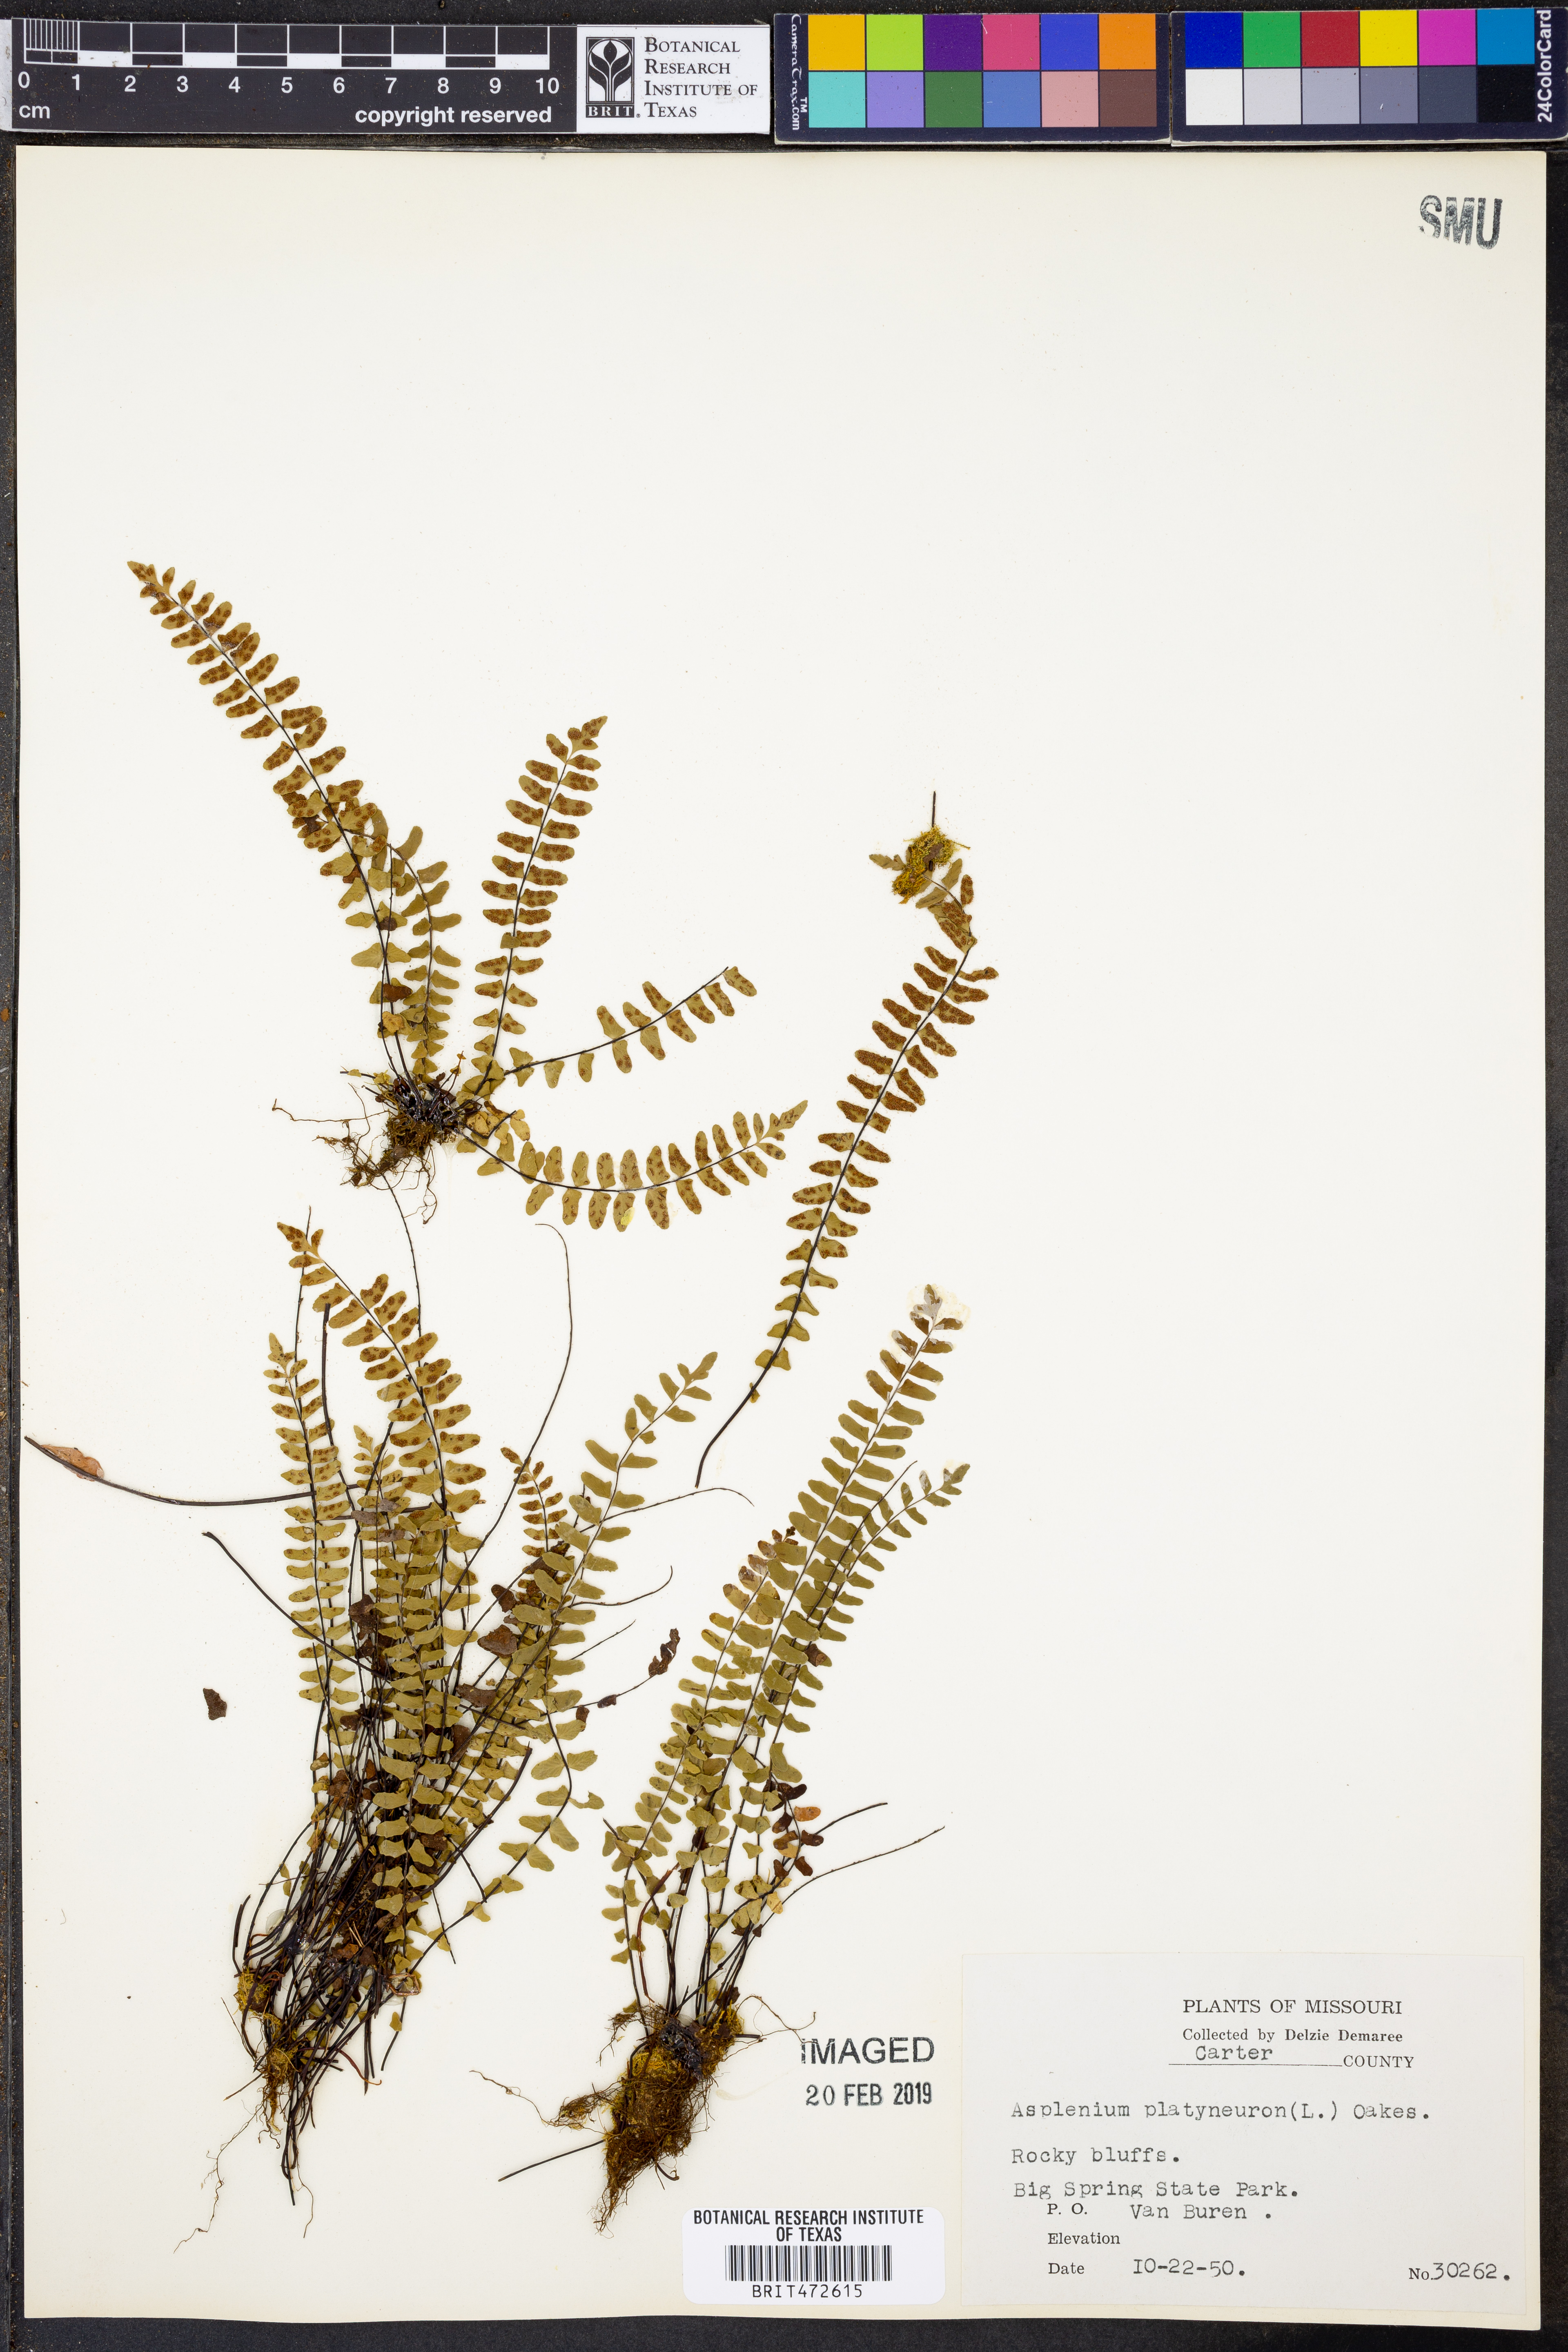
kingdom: Plantae
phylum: Tracheophyta
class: Polypodiopsida
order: Polypodiales
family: Aspleniaceae
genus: Asplenium
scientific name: Asplenium platyneuron
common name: Ebony spleenwort
